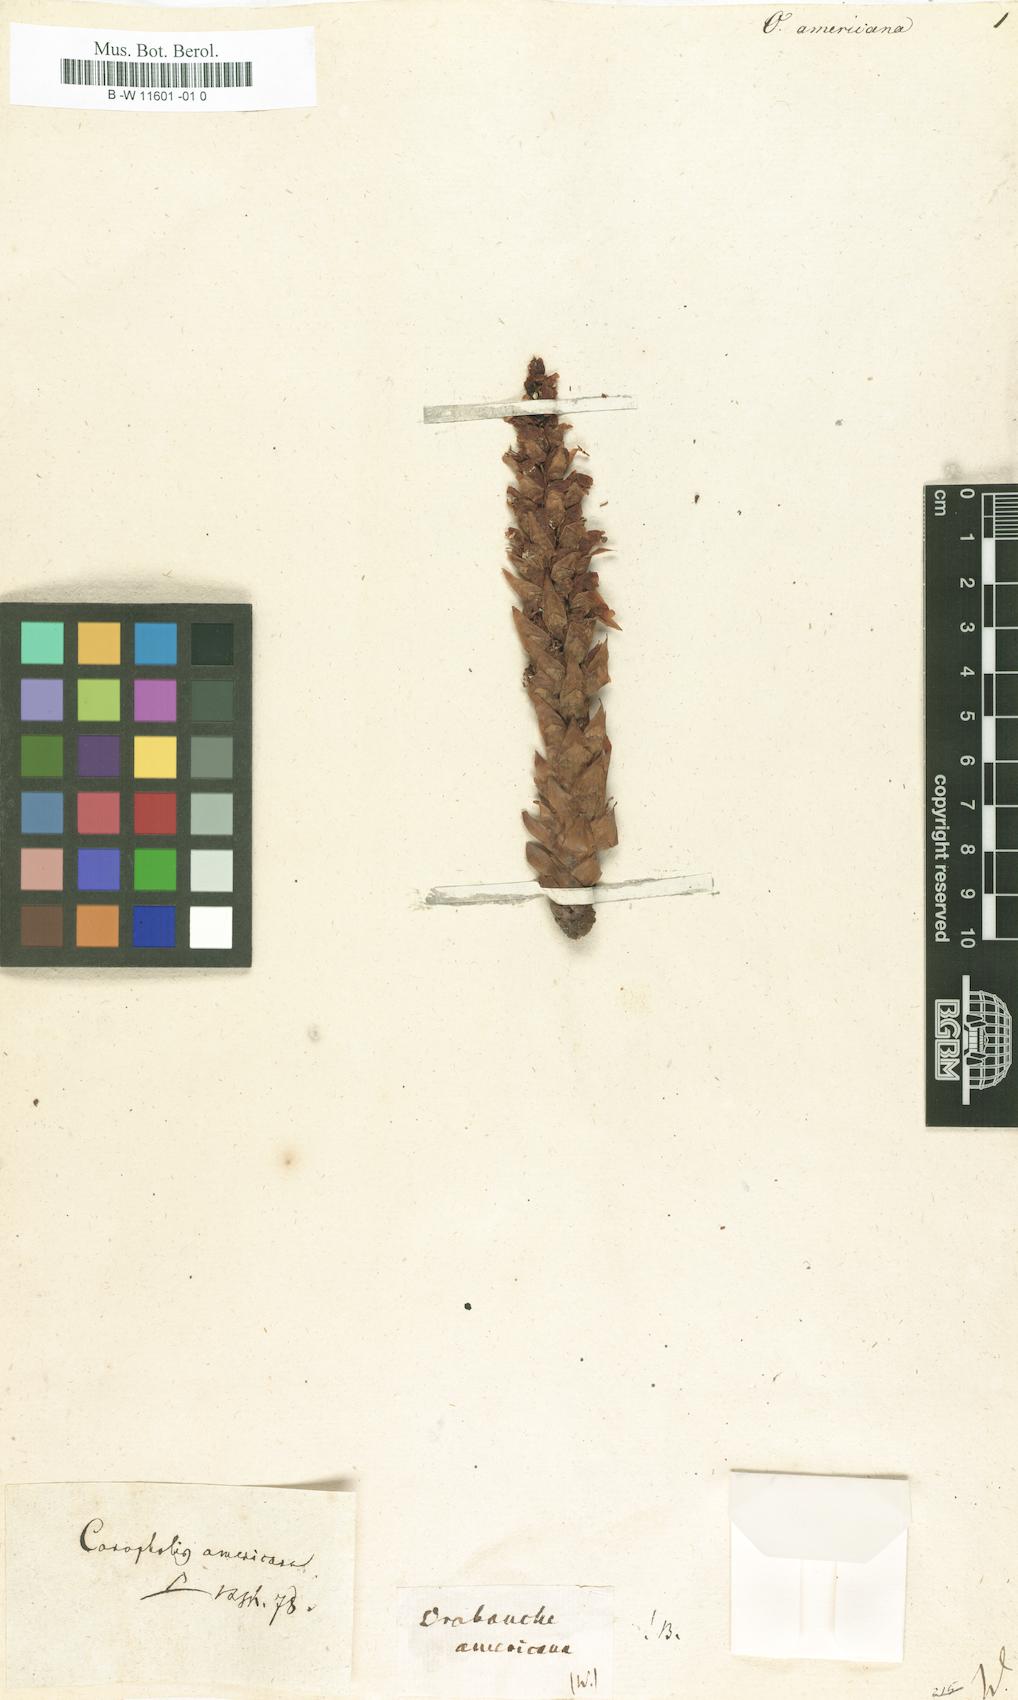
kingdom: Plantae
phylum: Tracheophyta
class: Magnoliopsida
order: Lamiales
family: Orobanchaceae
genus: Conopholis
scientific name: Conopholis americana
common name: American cancer-root
